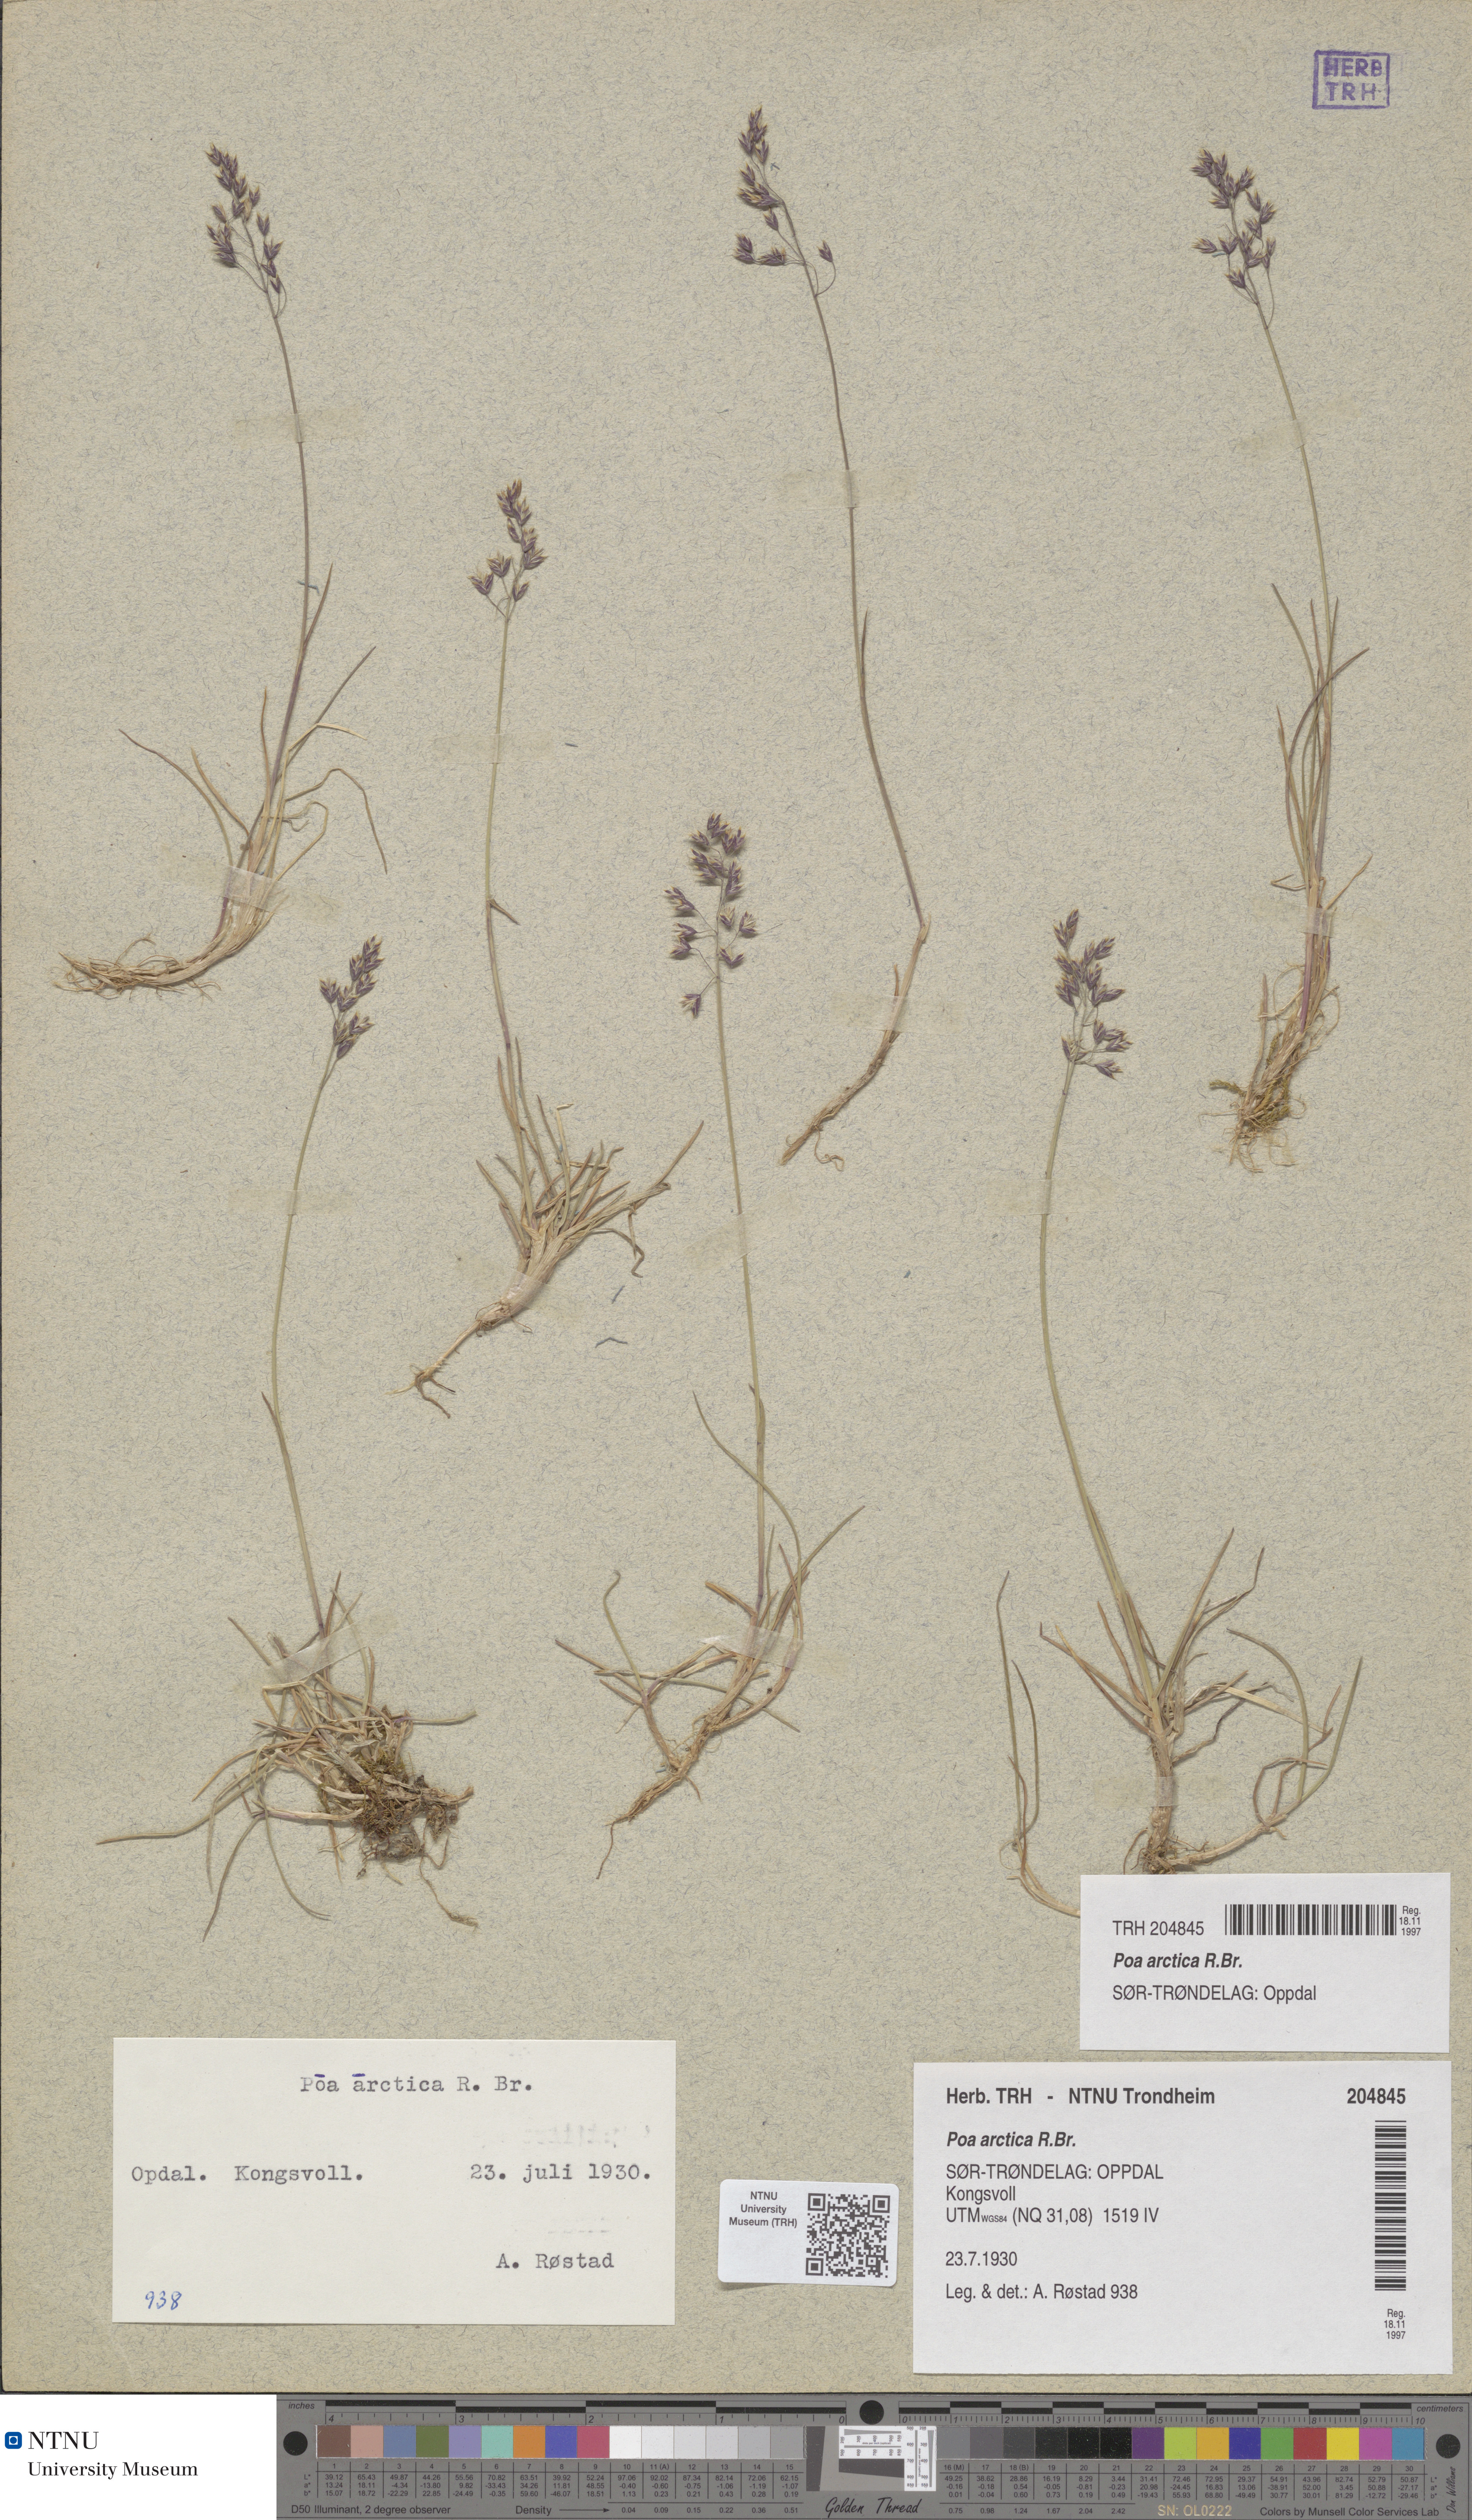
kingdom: Plantae
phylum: Tracheophyta
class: Liliopsida
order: Poales
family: Poaceae
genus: Poa
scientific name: Poa arctica
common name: Arctic bluegrass
